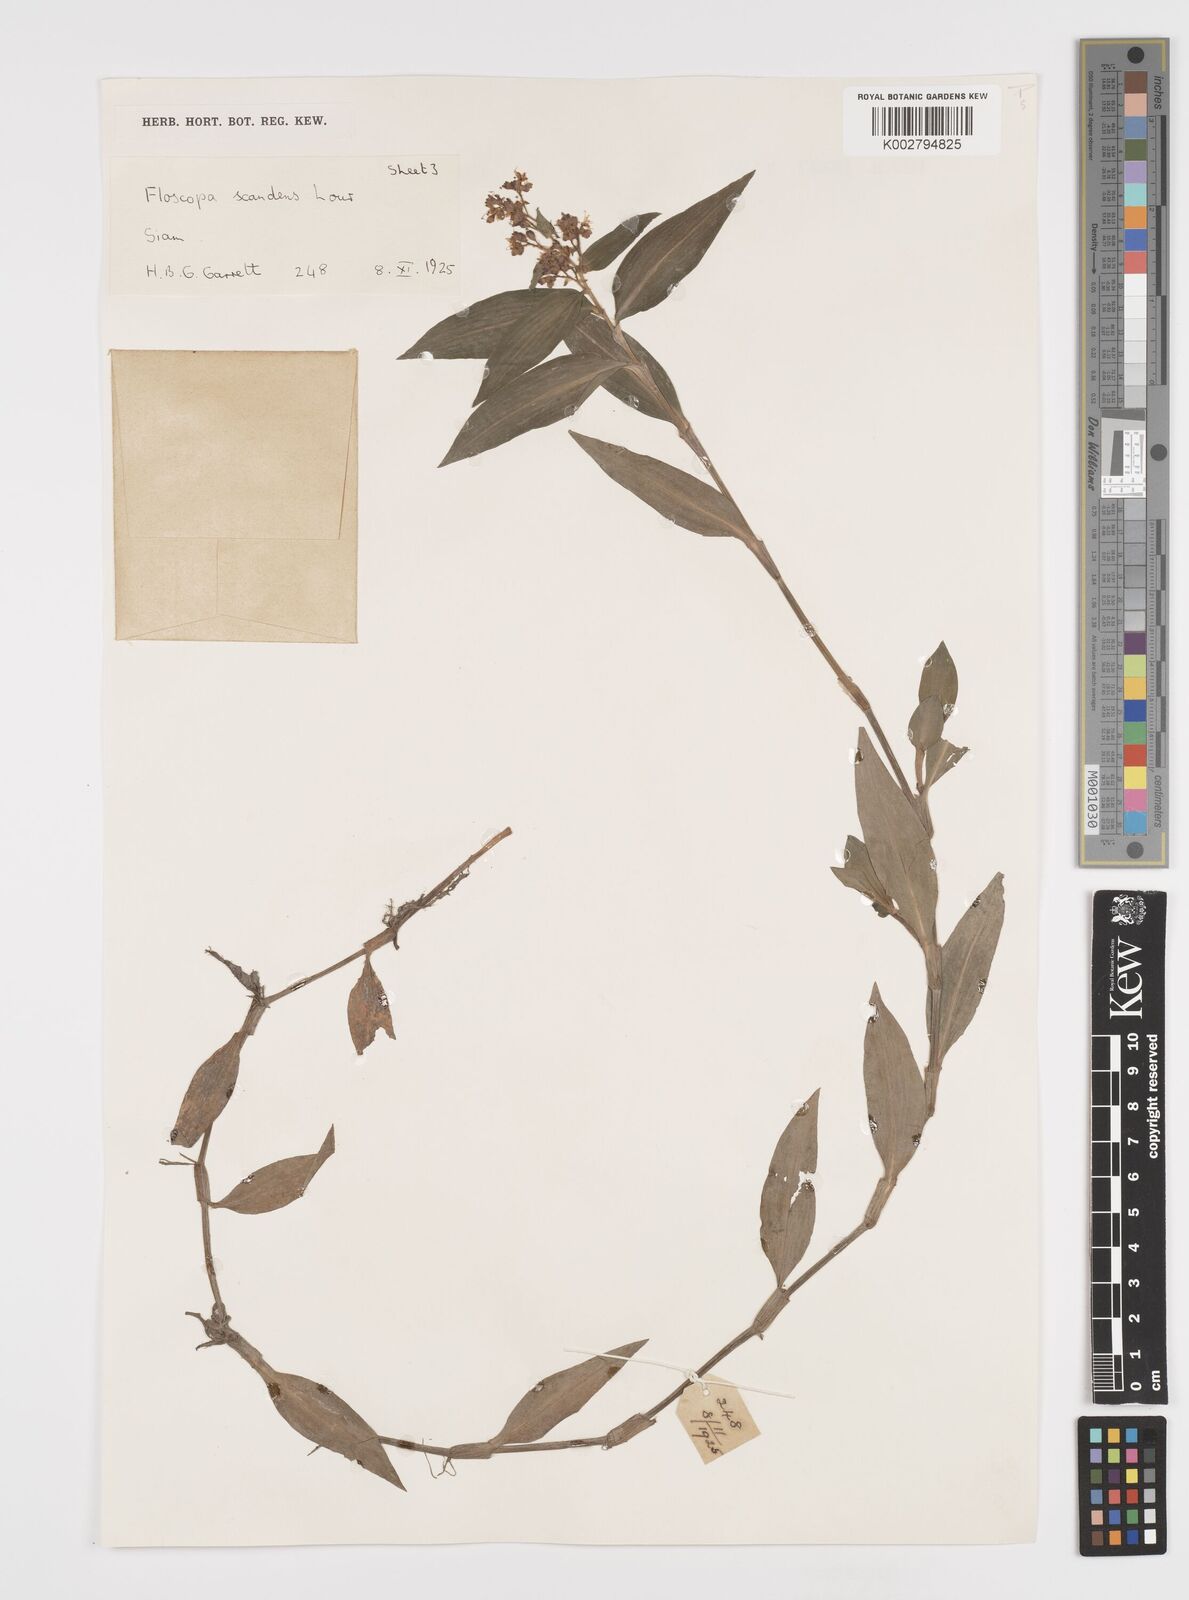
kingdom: Plantae
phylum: Tracheophyta
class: Liliopsida
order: Commelinales
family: Commelinaceae
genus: Floscopa
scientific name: Floscopa scandens
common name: Climbing flower cup
